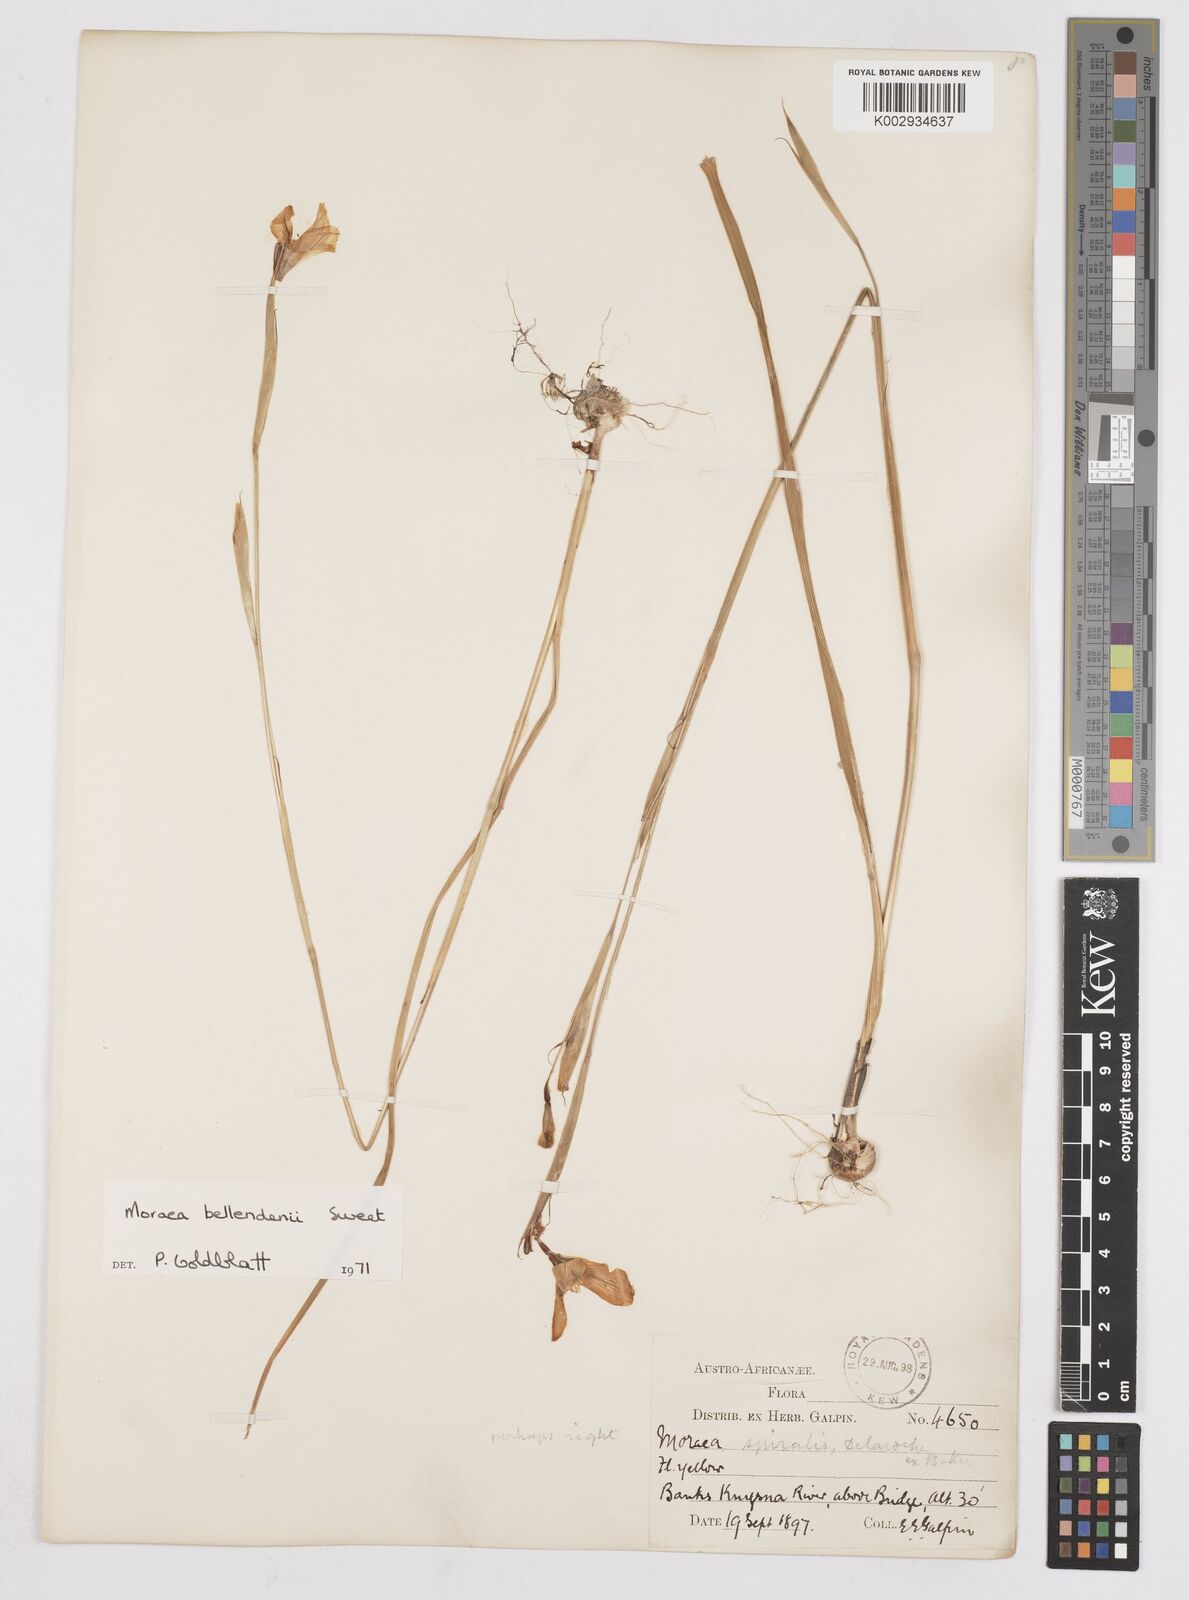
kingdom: Plantae
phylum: Tracheophyta
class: Liliopsida
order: Asparagales
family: Iridaceae
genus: Moraea
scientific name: Moraea bellendenii
